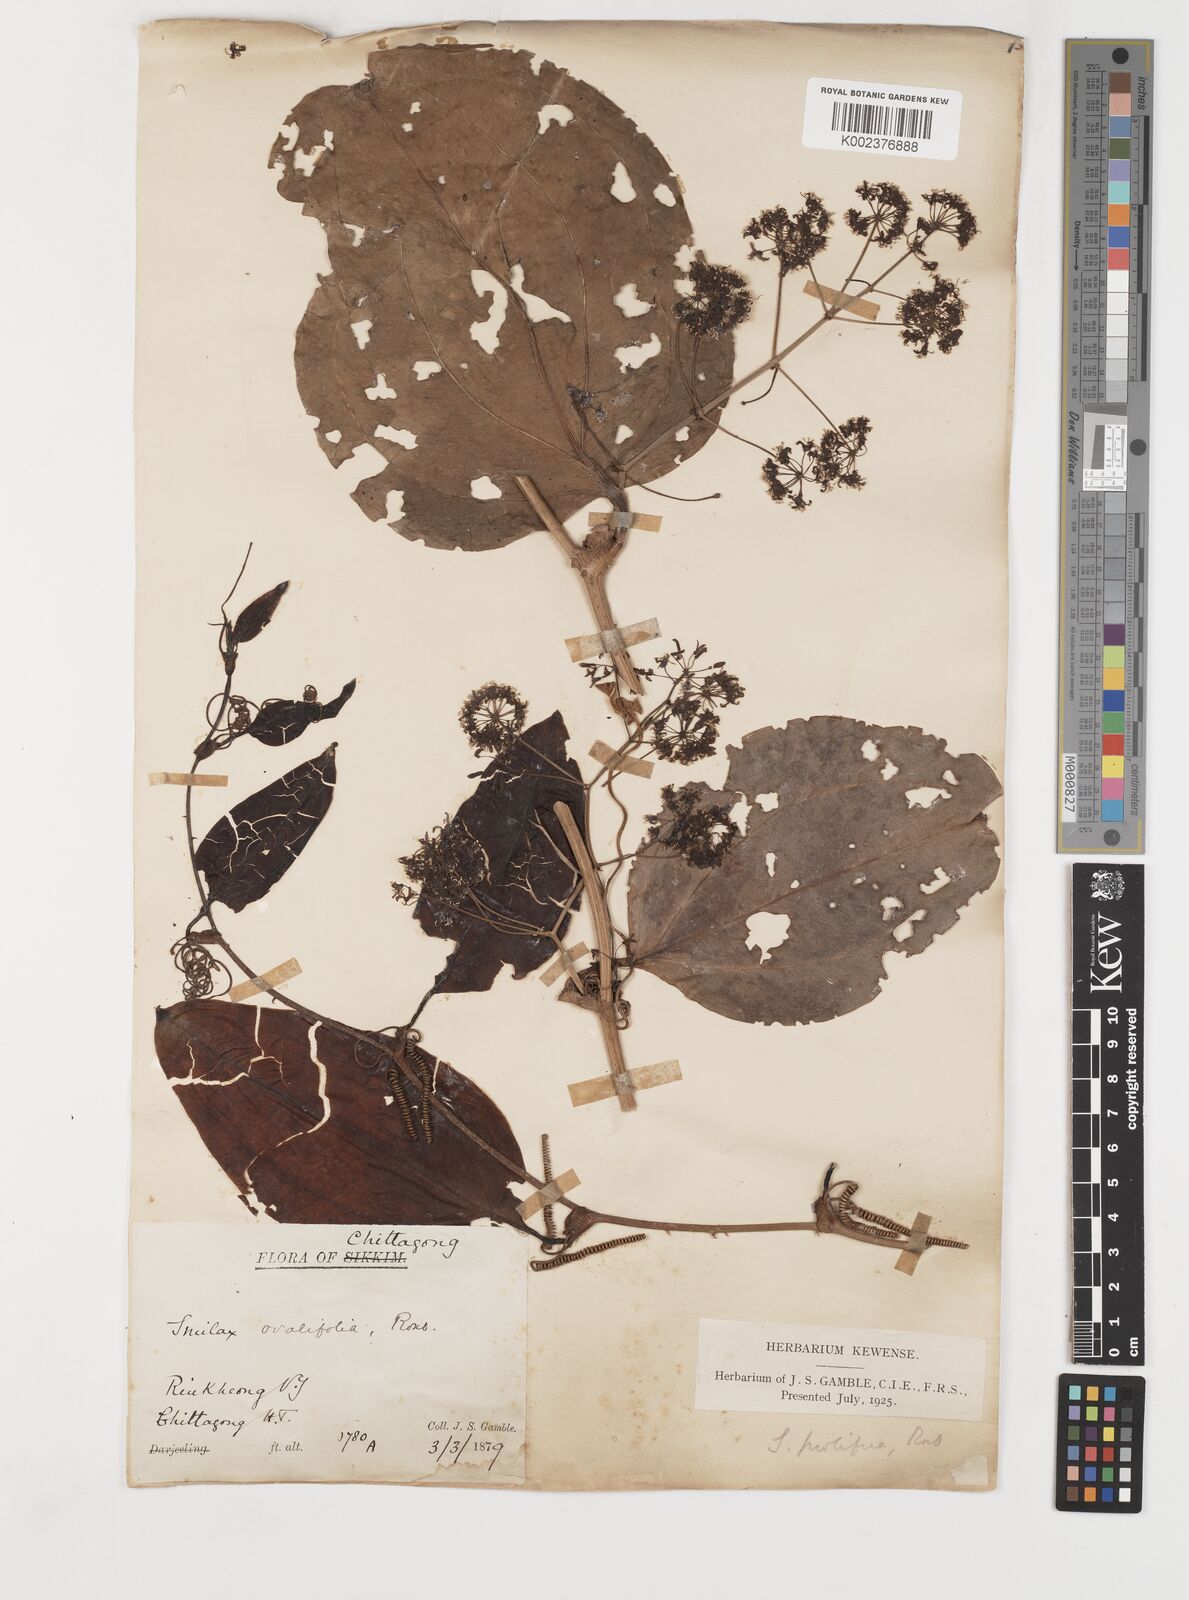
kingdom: Plantae
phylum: Tracheophyta
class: Liliopsida
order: Liliales
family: Smilacaceae
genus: Smilax
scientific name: Smilax prolifera
